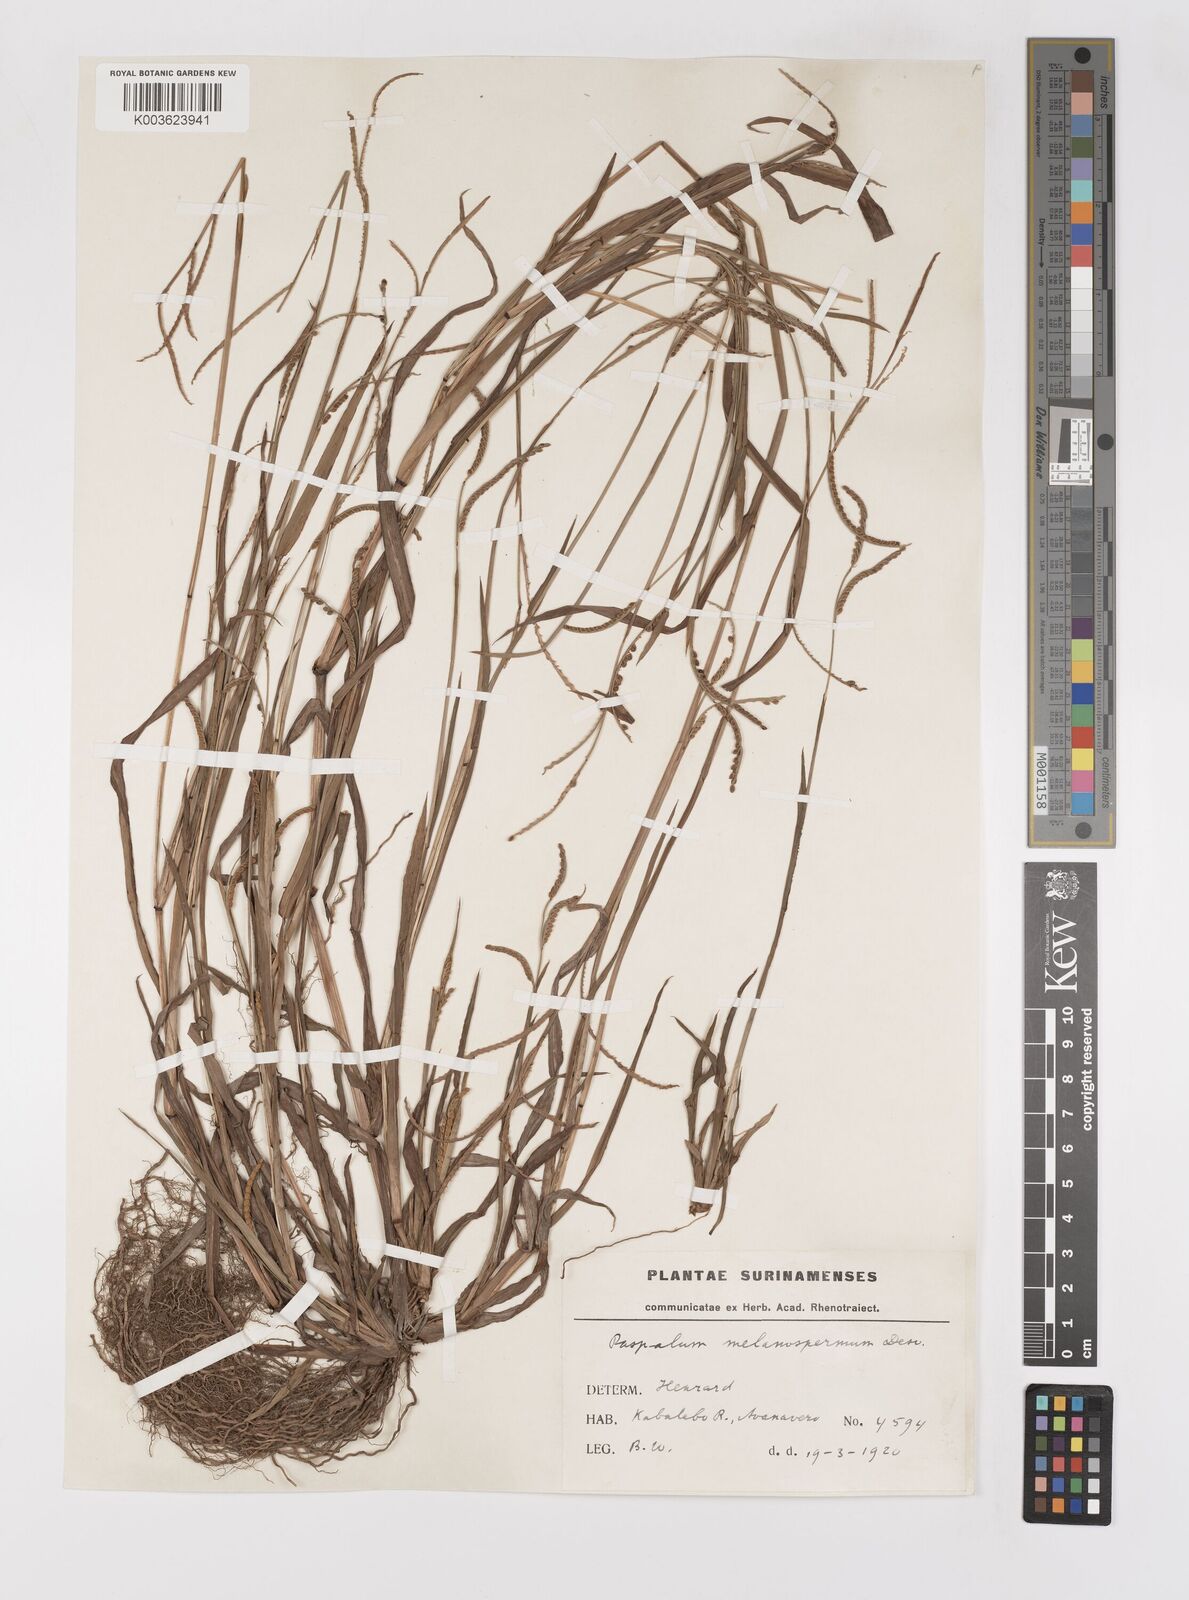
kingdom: Plantae
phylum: Tracheophyta
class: Liliopsida
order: Poales
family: Poaceae
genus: Paspalum
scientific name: Paspalum melanospermum
